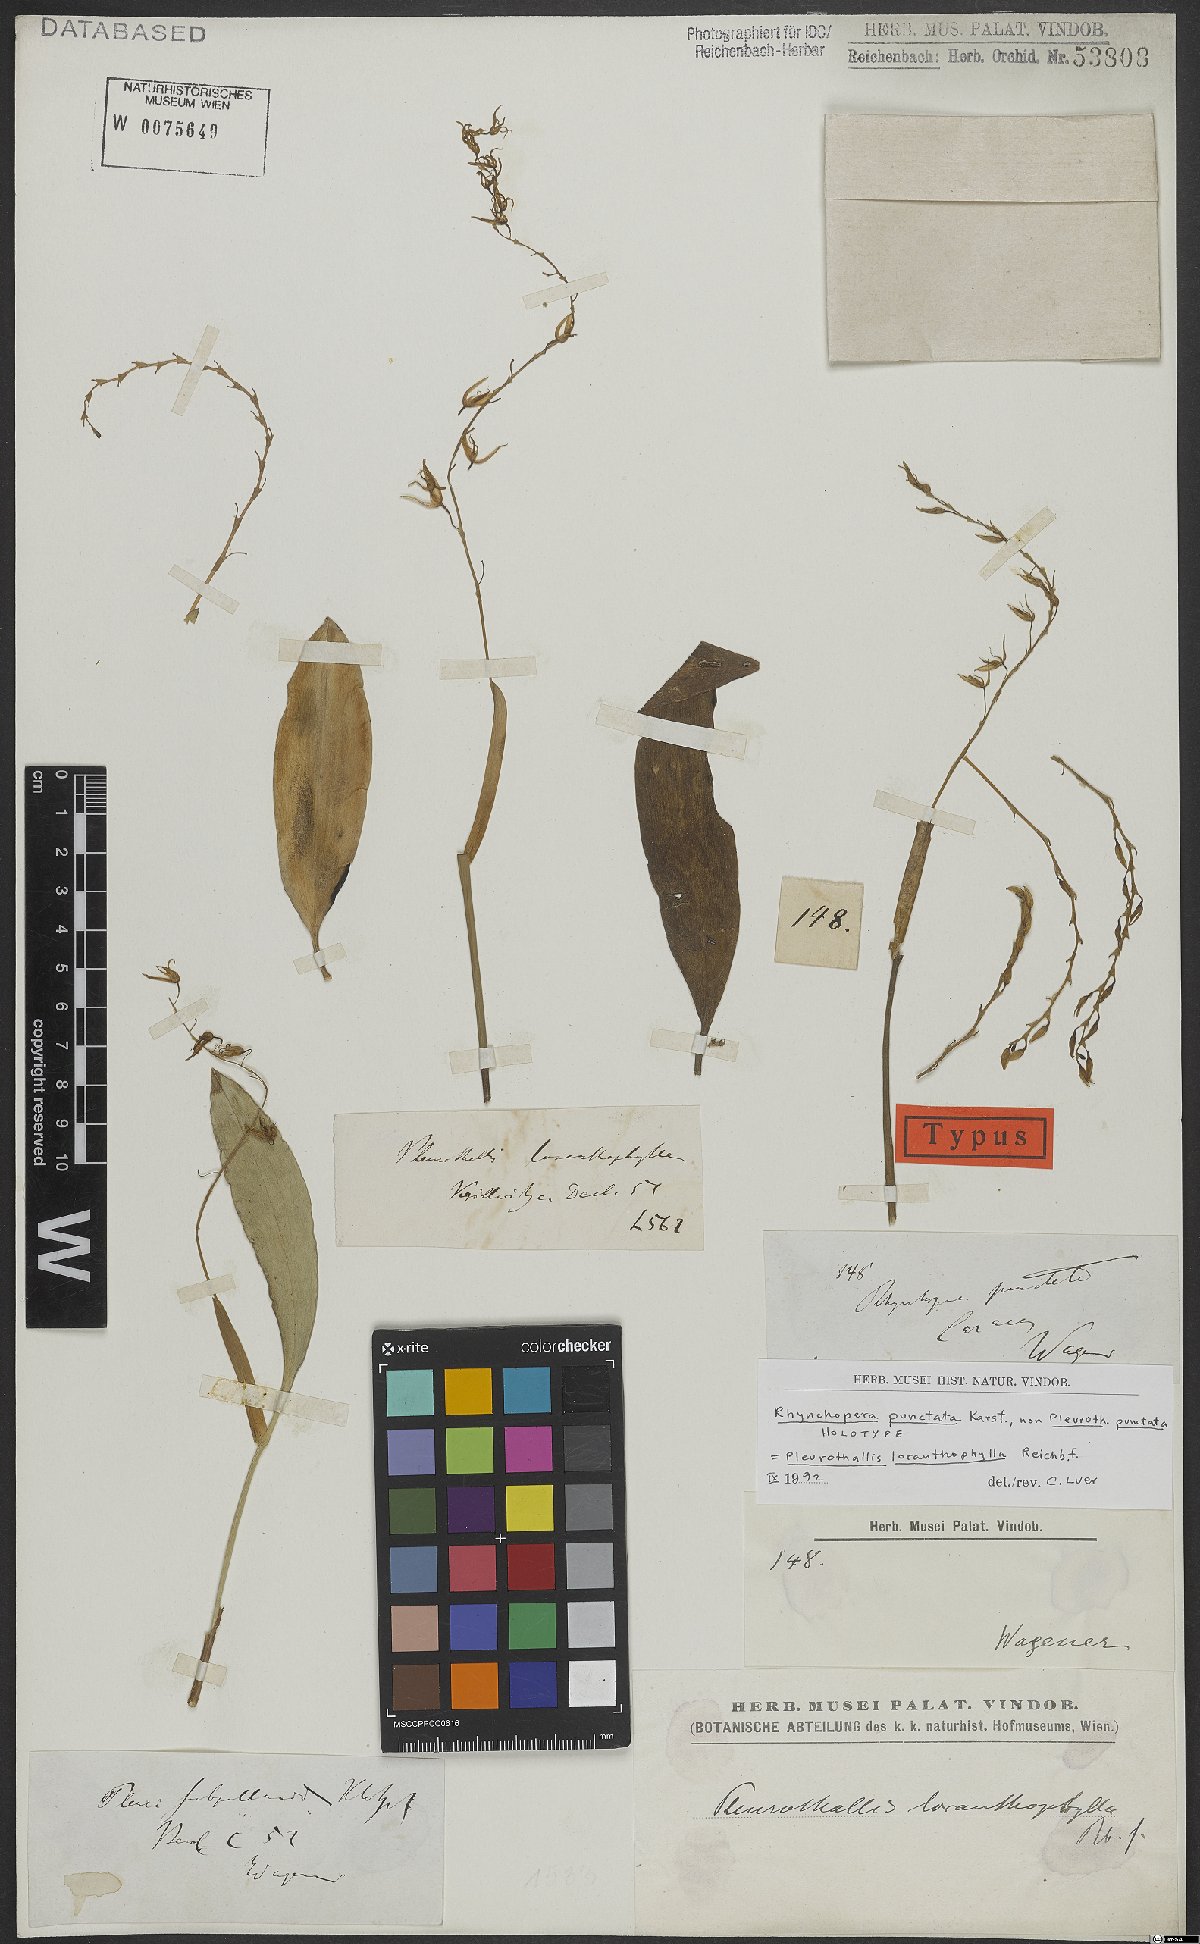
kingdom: Plantae
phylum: Tracheophyta
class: Liliopsida
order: Asparagales
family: Orchidaceae
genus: Pleurothallis
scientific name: Pleurothallis loranthophylla
